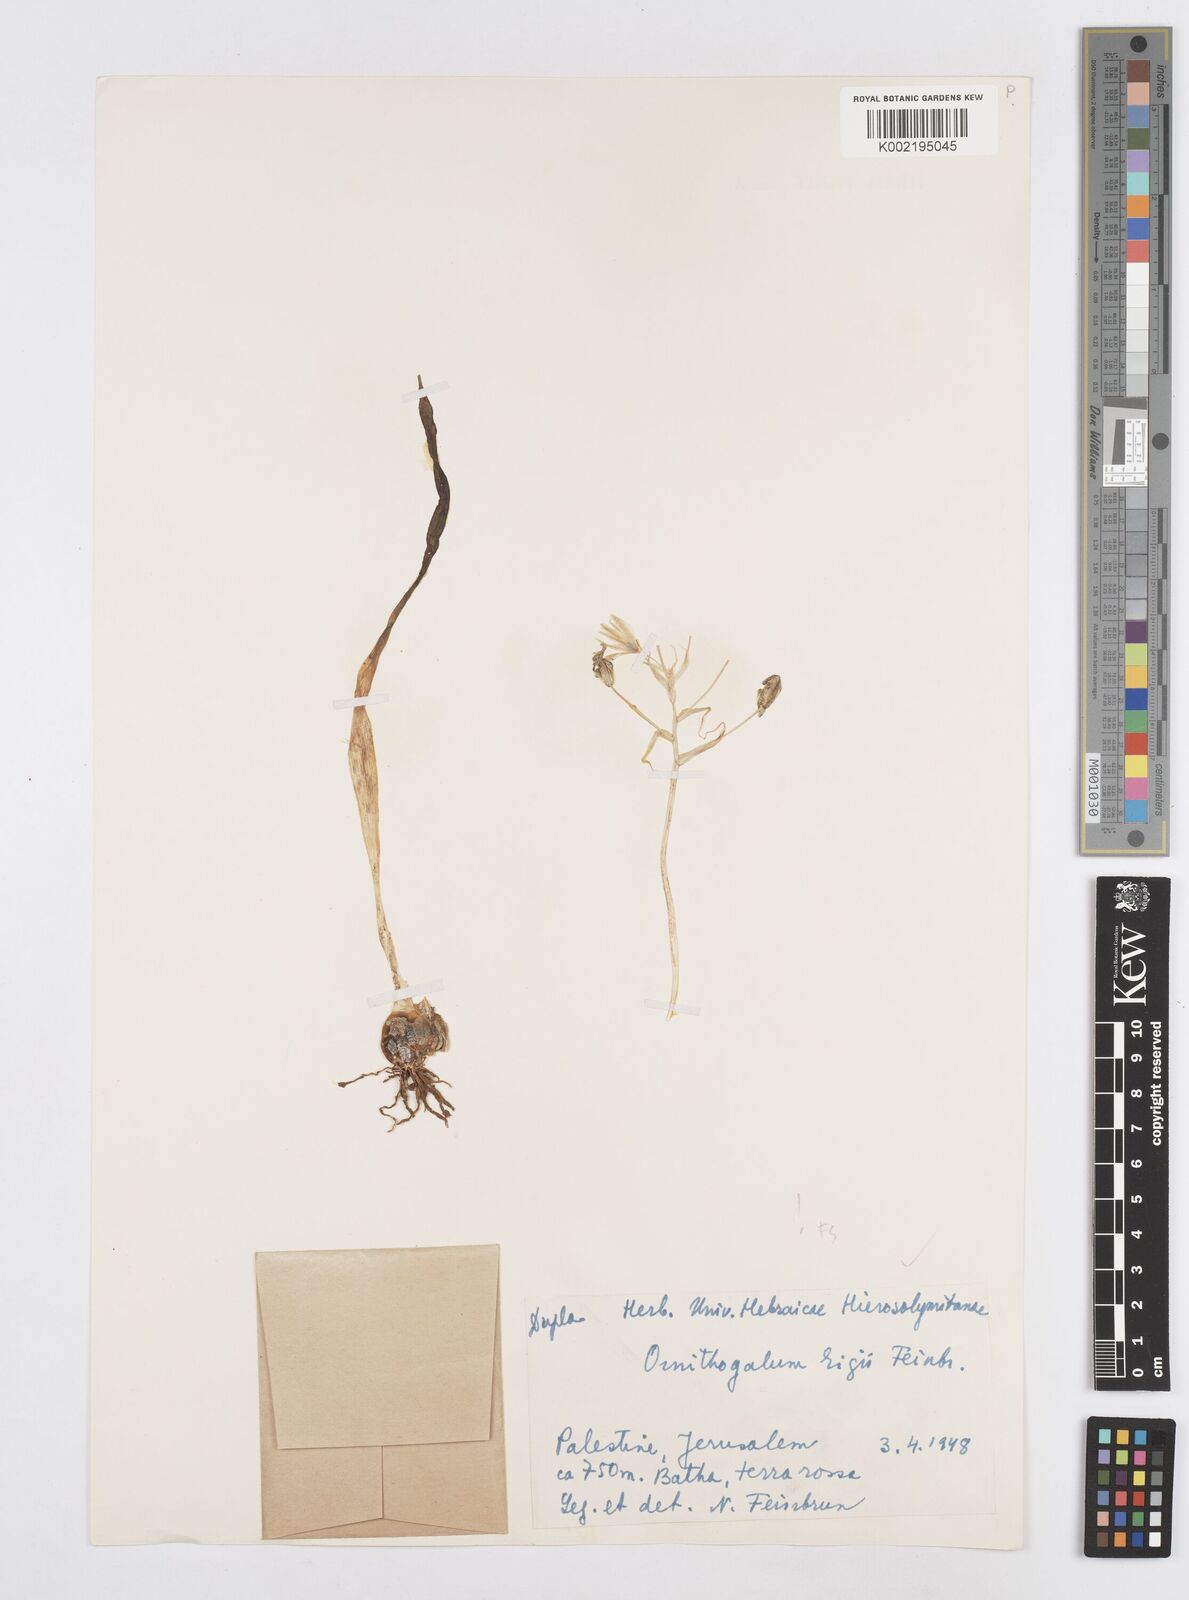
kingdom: Plantae
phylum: Tracheophyta
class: Liliopsida
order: Asparagales
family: Asparagaceae
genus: Ornithogalum
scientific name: Ornithogalum neurostegium
